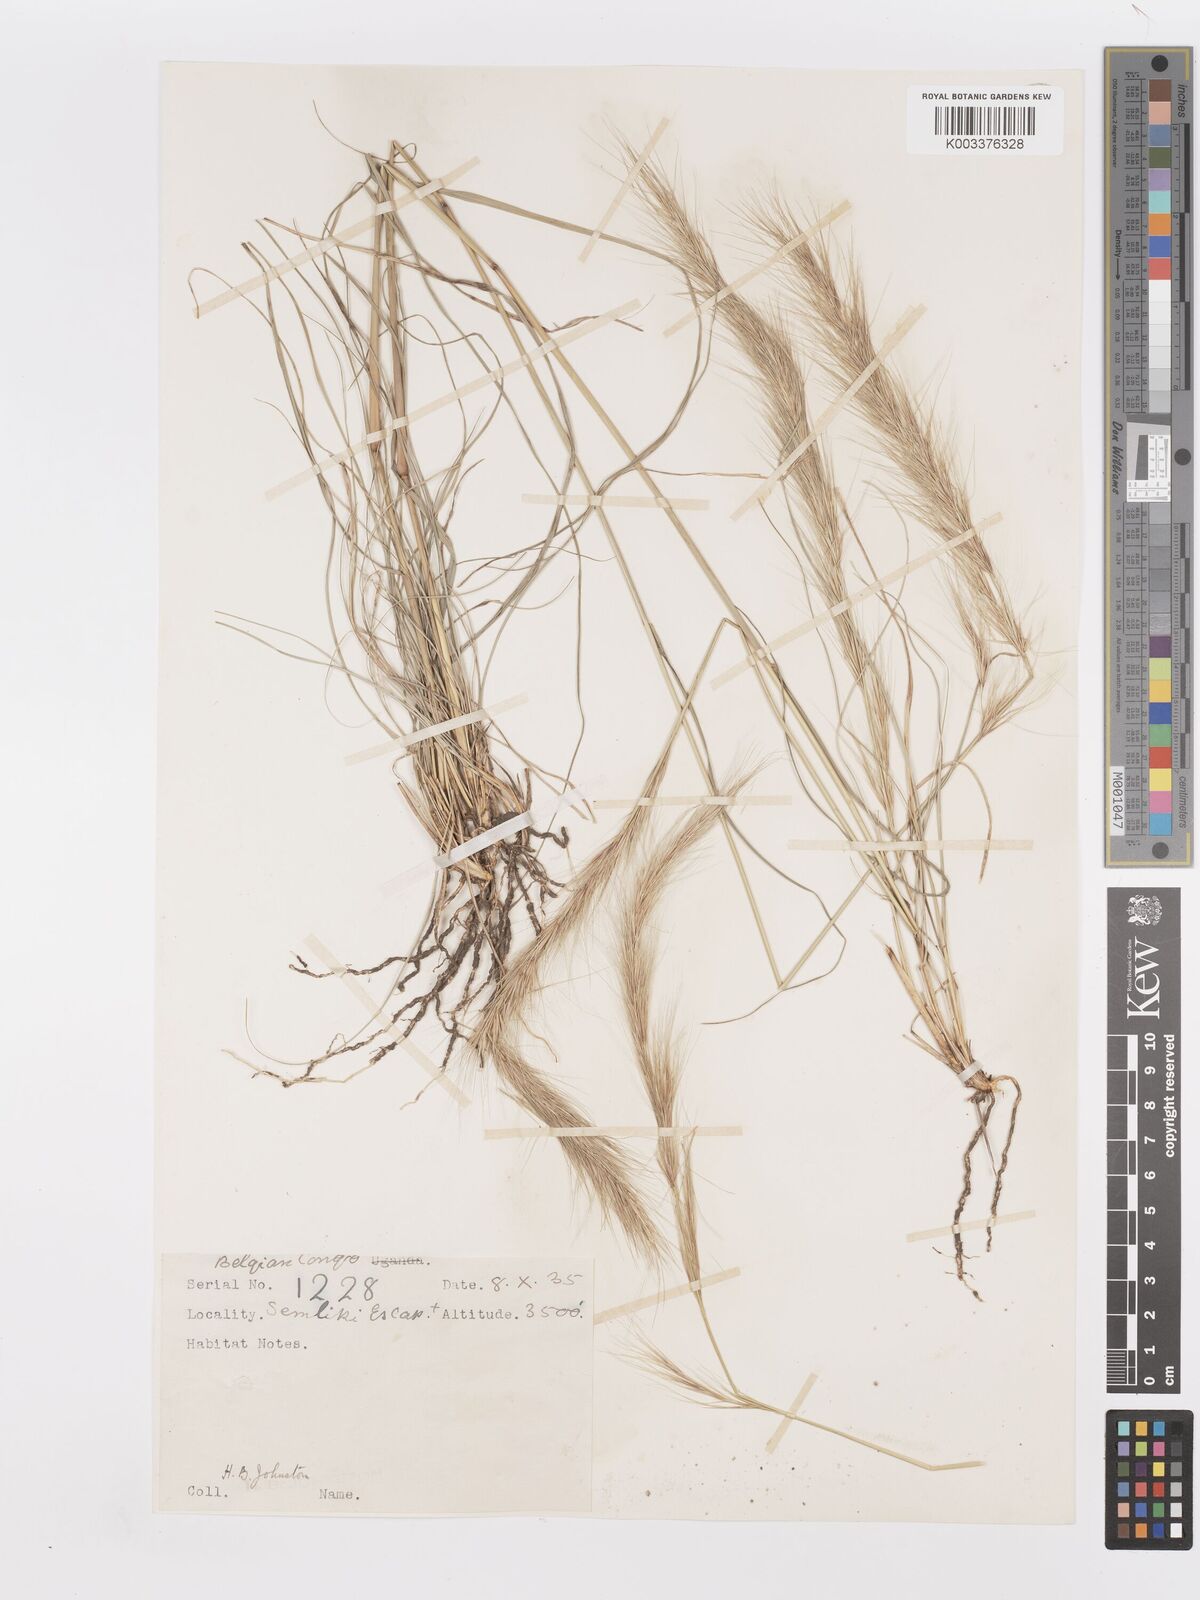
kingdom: Plantae
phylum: Tracheophyta
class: Liliopsida
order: Poales
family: Poaceae
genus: Aristida
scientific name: Aristida adoensis
